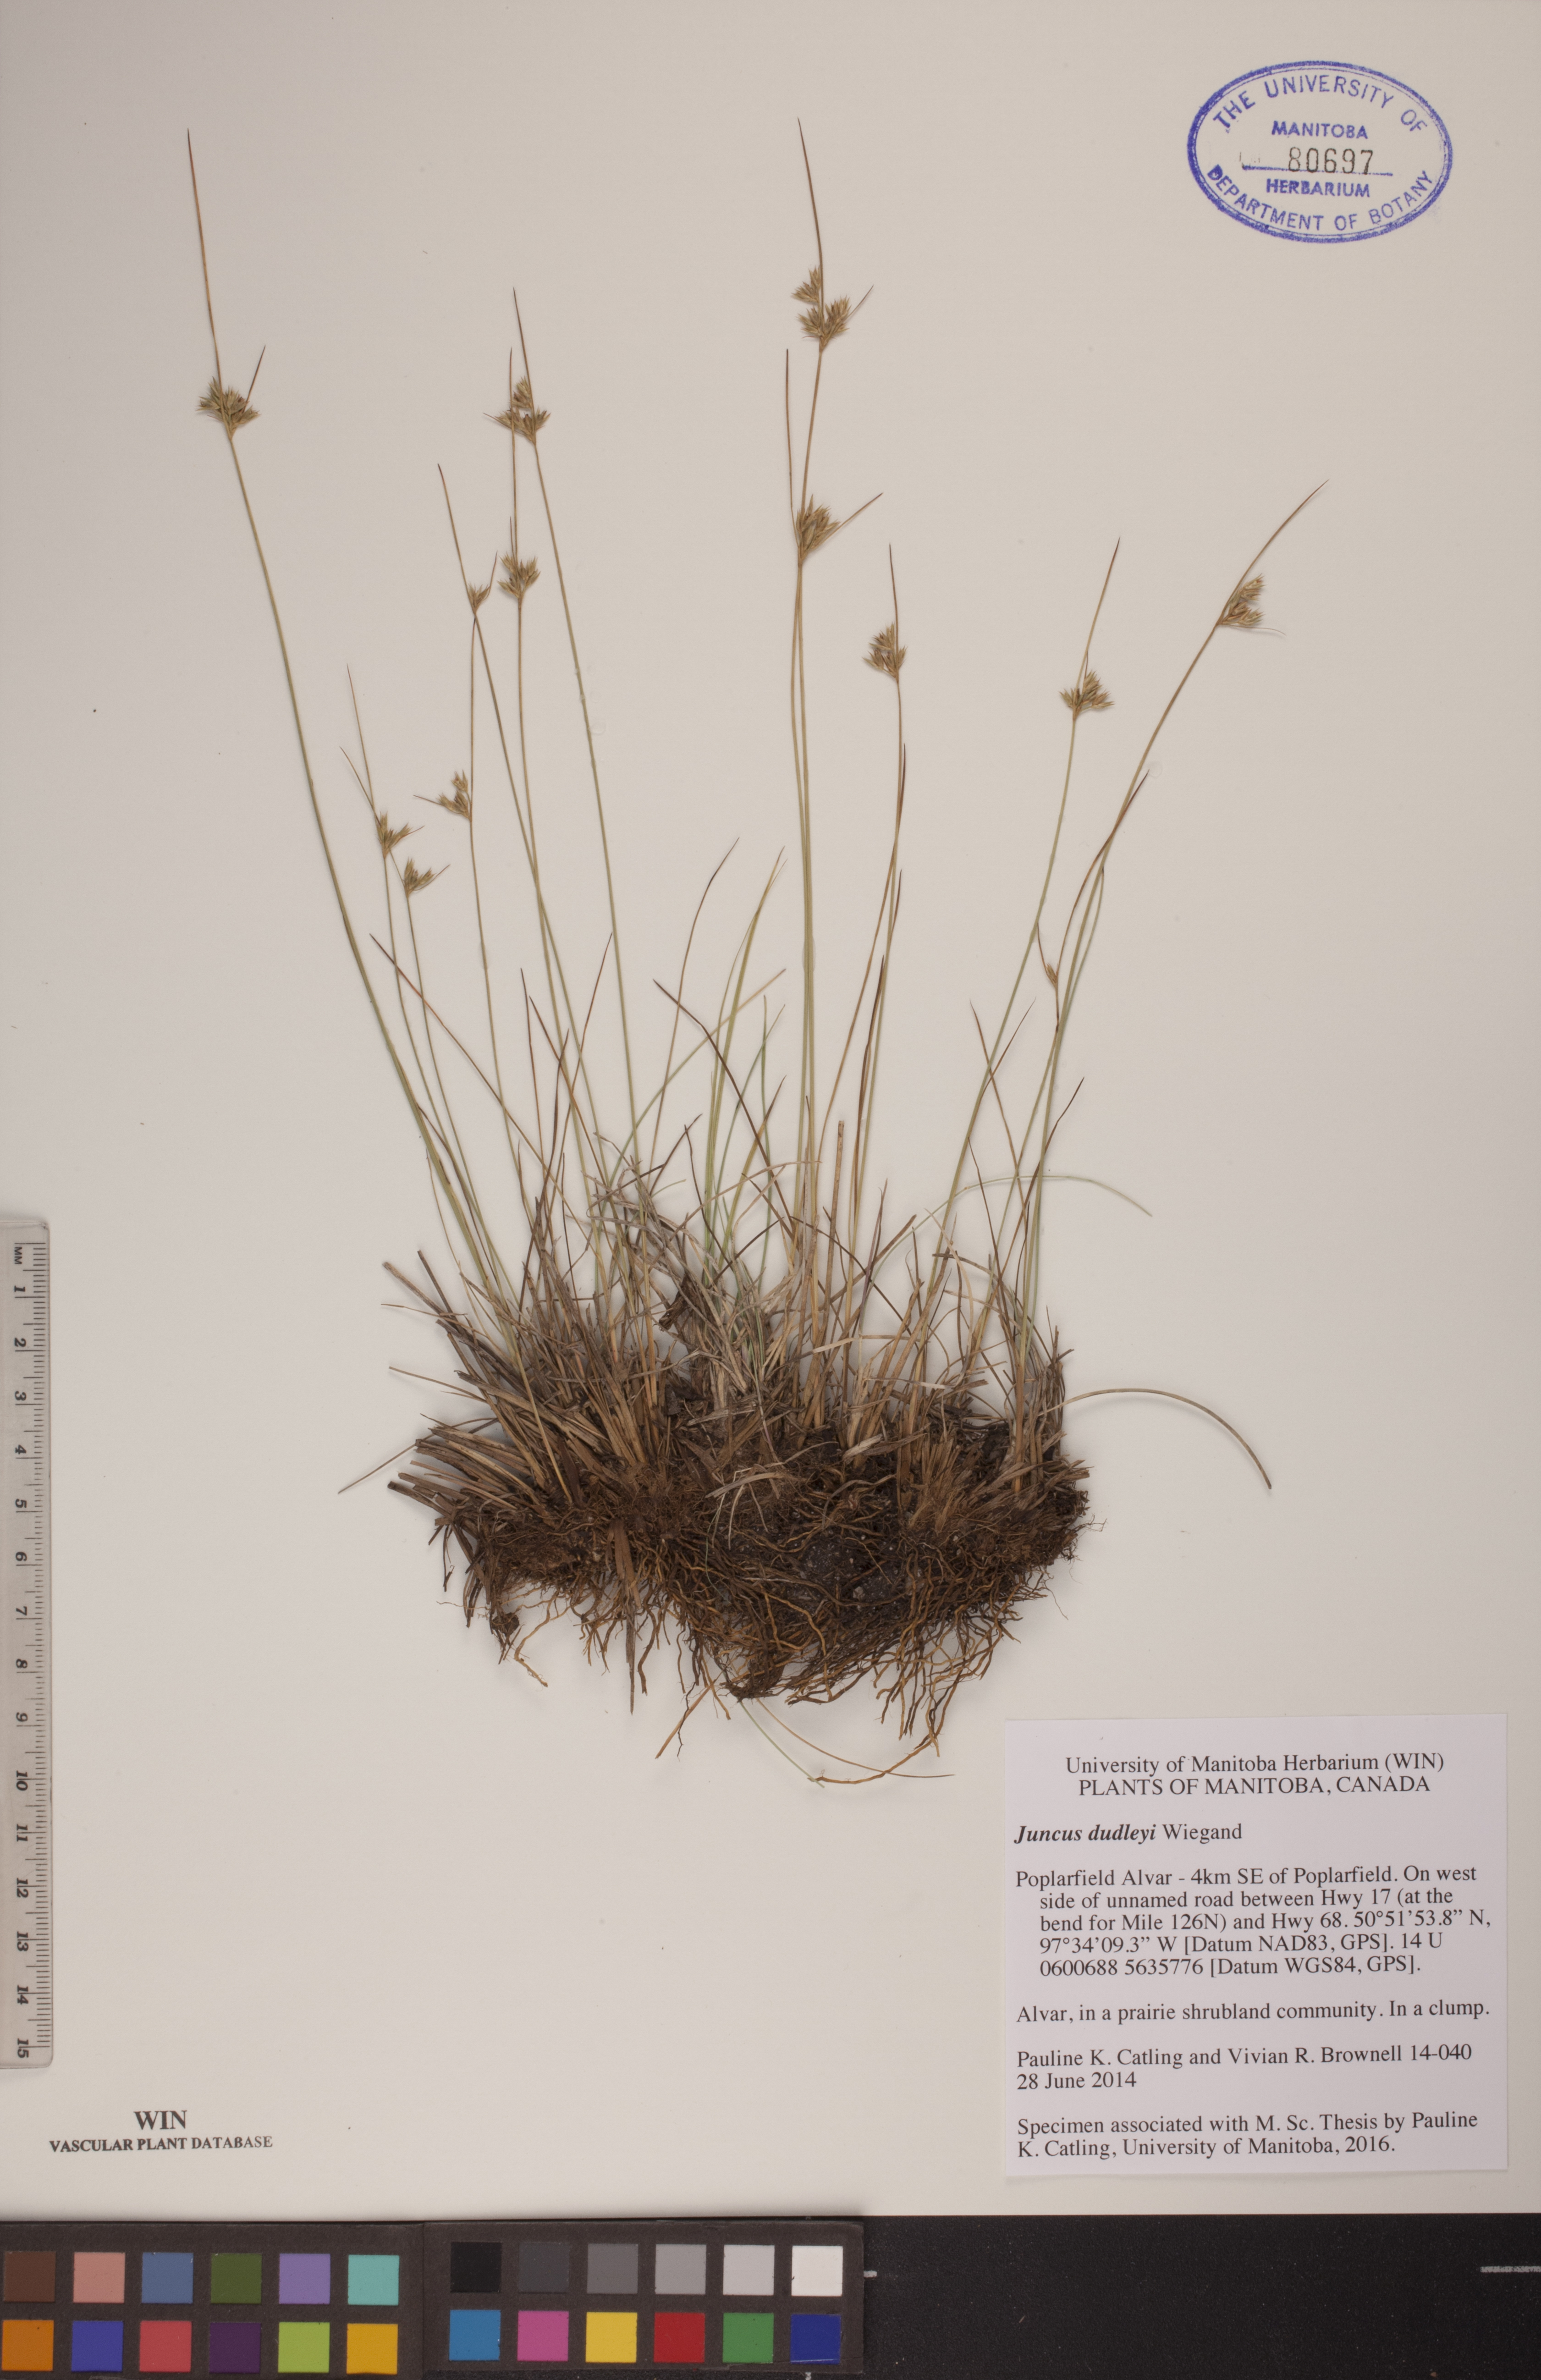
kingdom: Plantae
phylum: Tracheophyta
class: Liliopsida
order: Poales
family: Juncaceae
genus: Juncus
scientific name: Juncus dudleyi
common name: Dudley's rush
